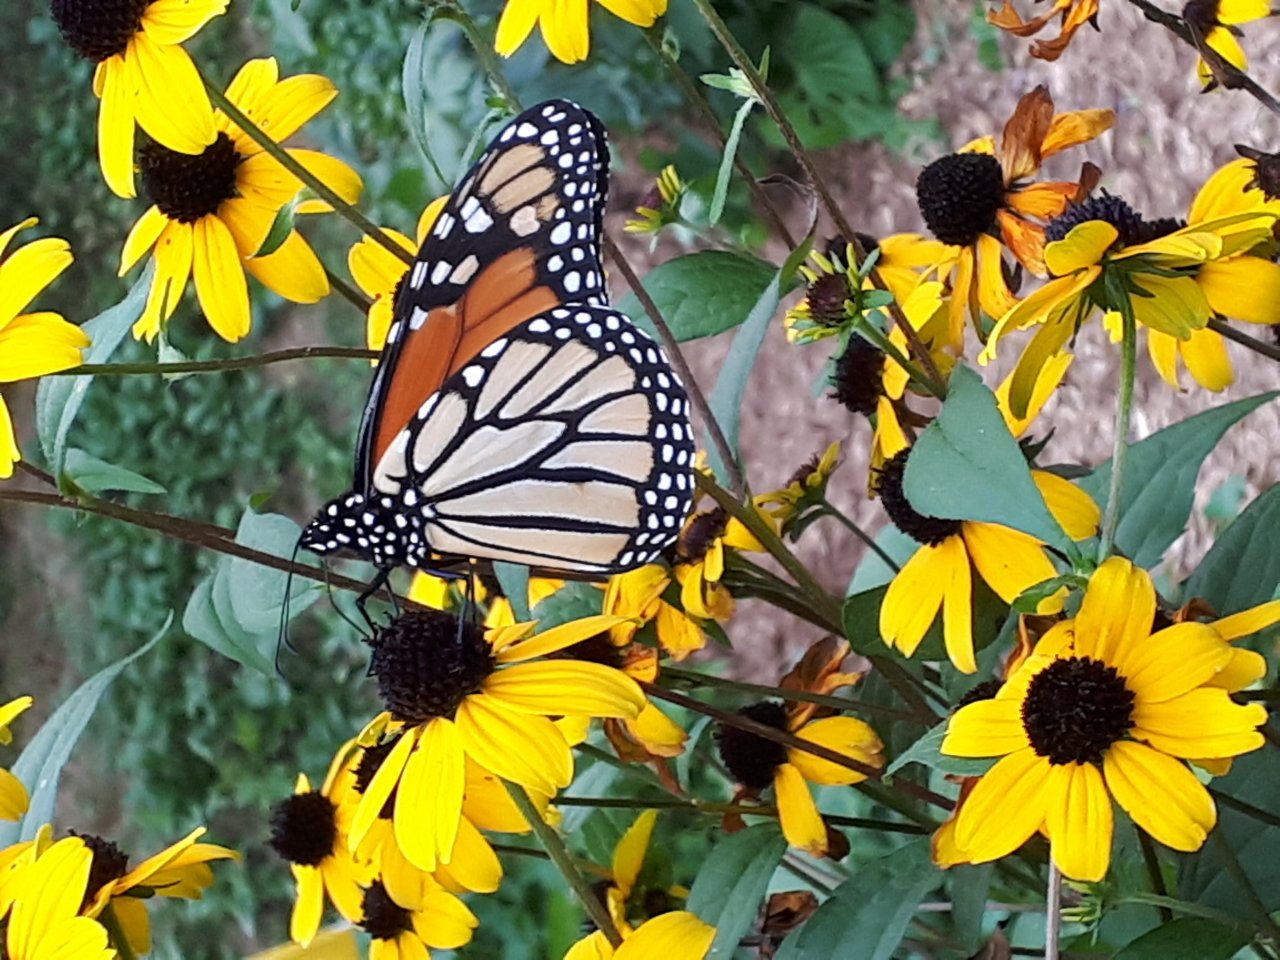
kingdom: Animalia
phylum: Arthropoda
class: Insecta
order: Lepidoptera
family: Nymphalidae
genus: Danaus
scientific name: Danaus plexippus
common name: Monarch
